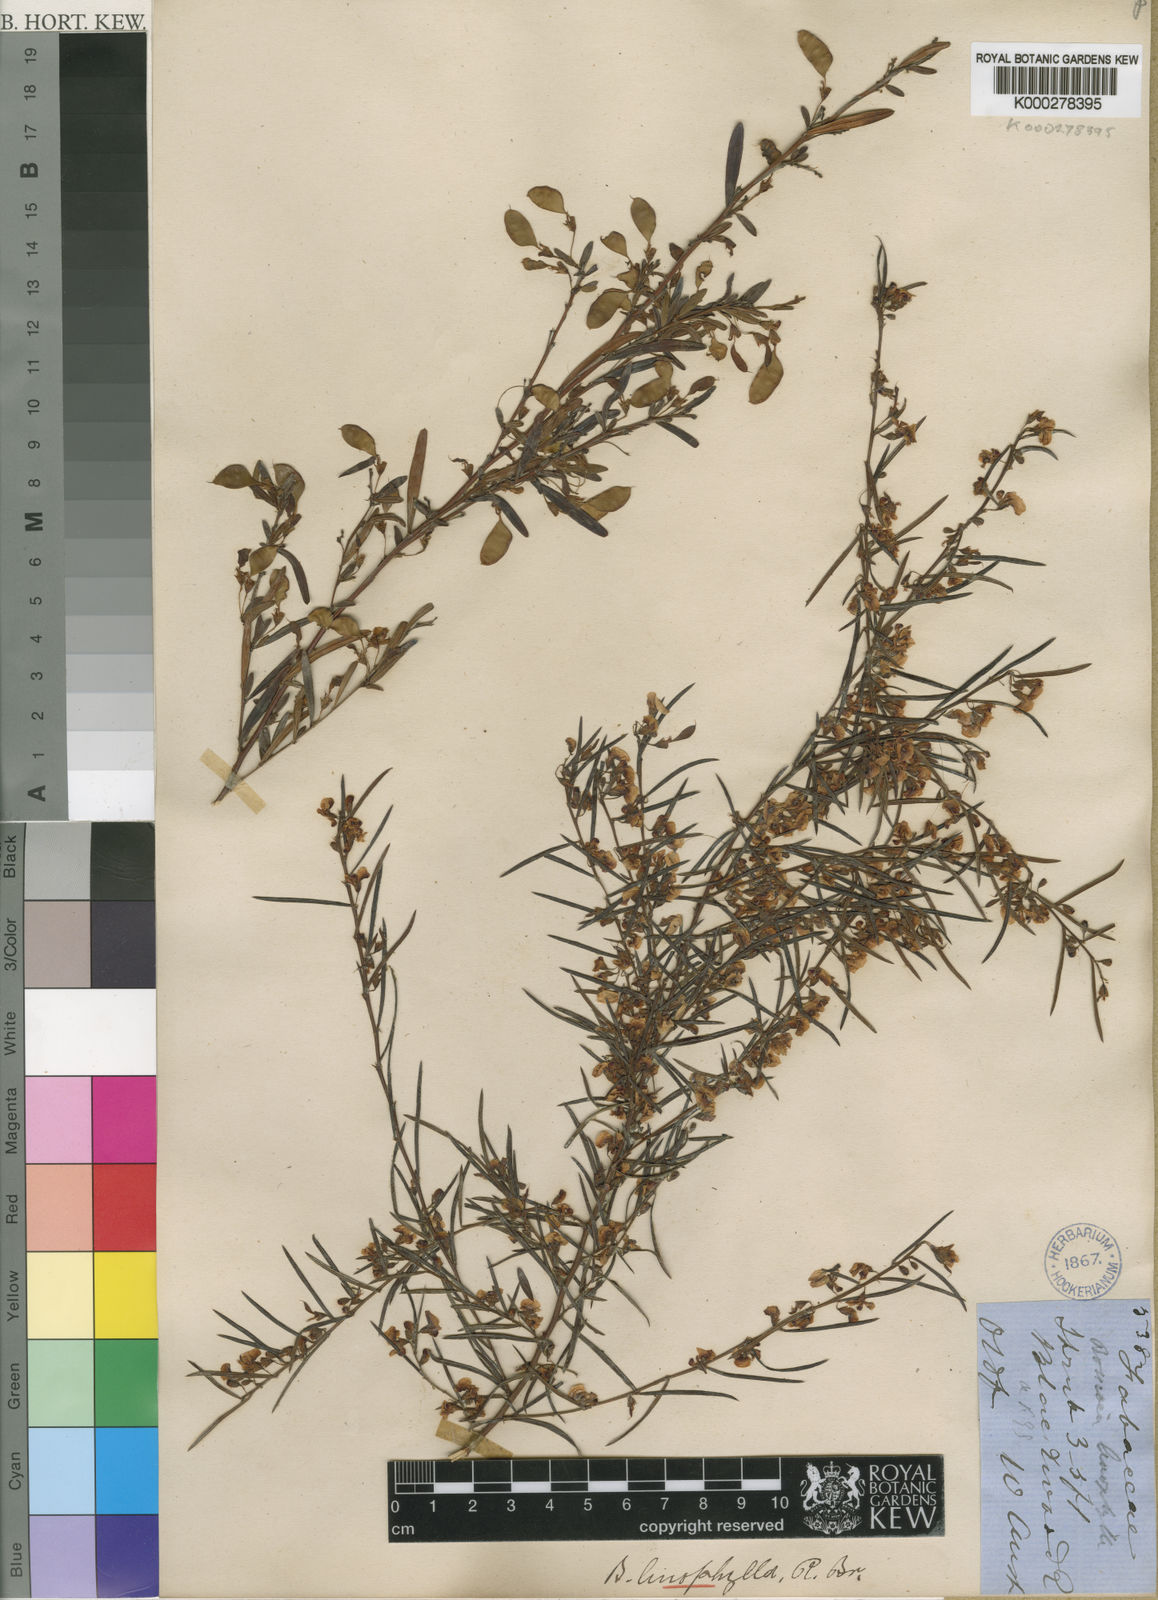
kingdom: Plantae
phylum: Tracheophyta
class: Magnoliopsida
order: Fabales
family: Fabaceae
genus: Bossiaea
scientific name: Bossiaea linophylla
